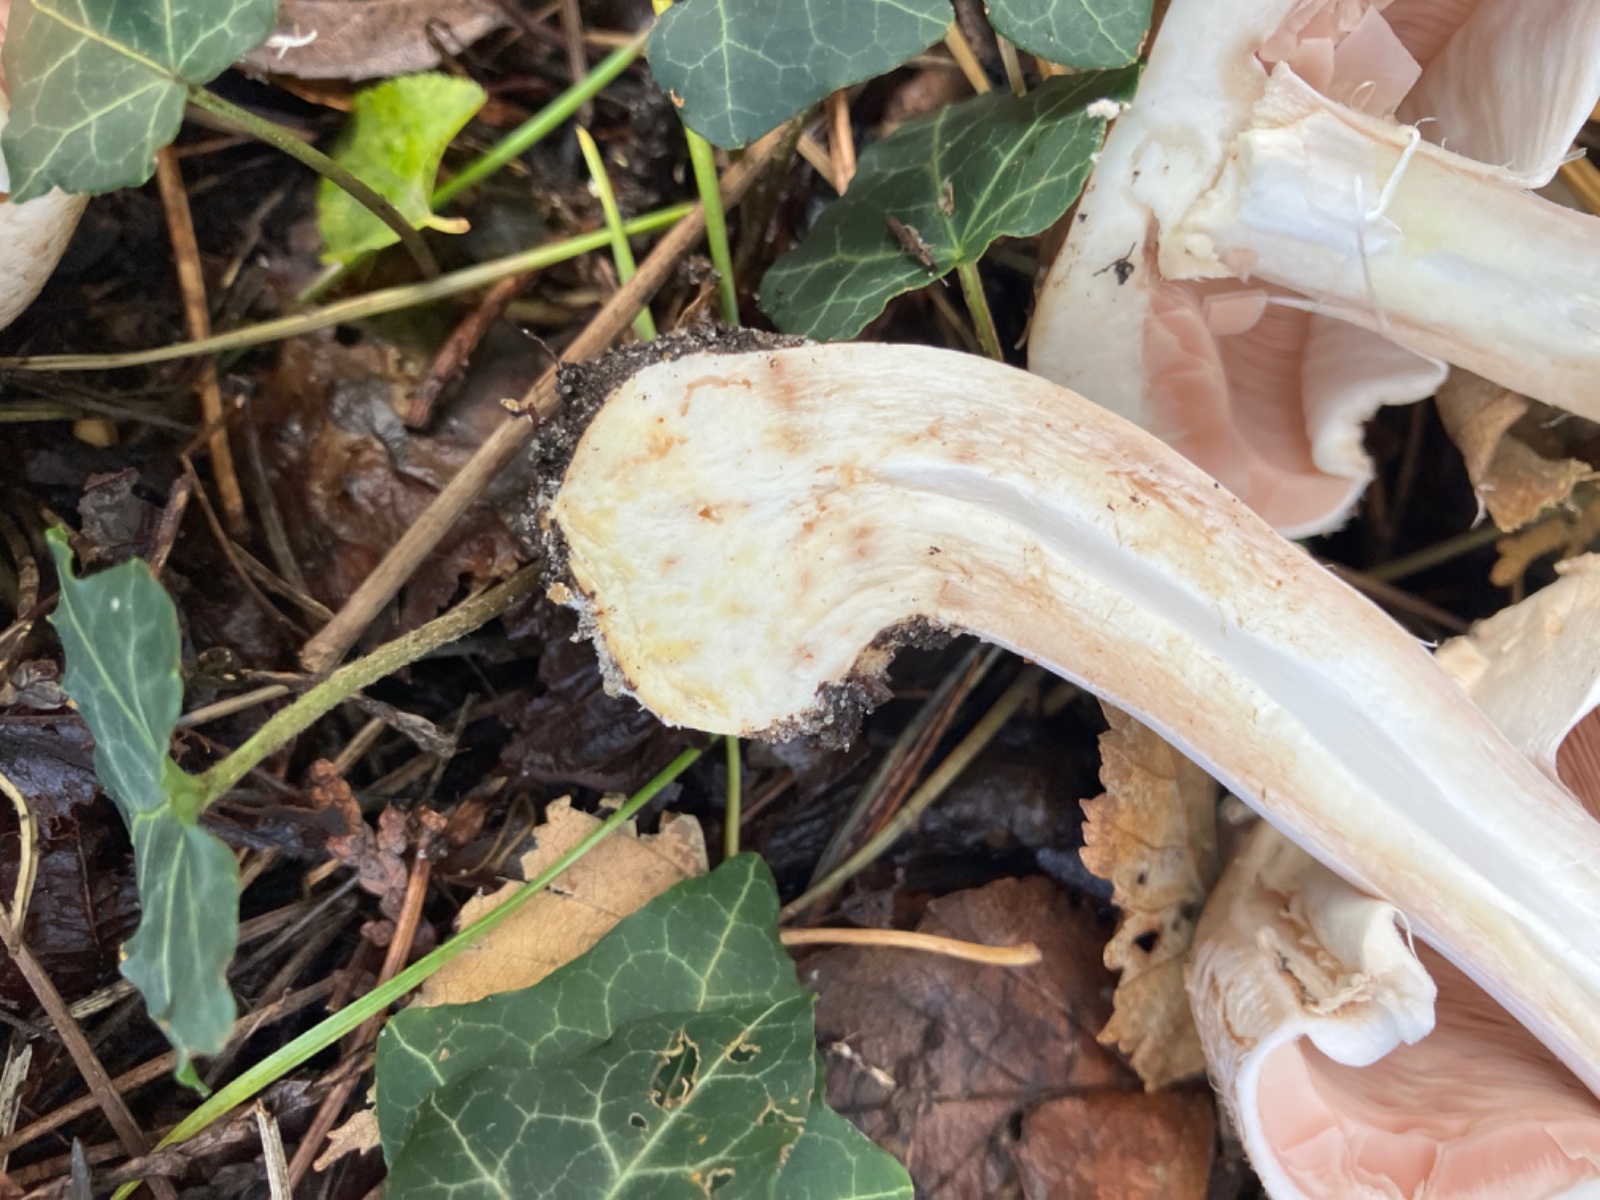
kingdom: Fungi
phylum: Basidiomycota
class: Agaricomycetes
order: Agaricales
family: Agaricaceae
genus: Agaricus
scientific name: Agaricus phaeolepidotus
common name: agerhøne-champignon
